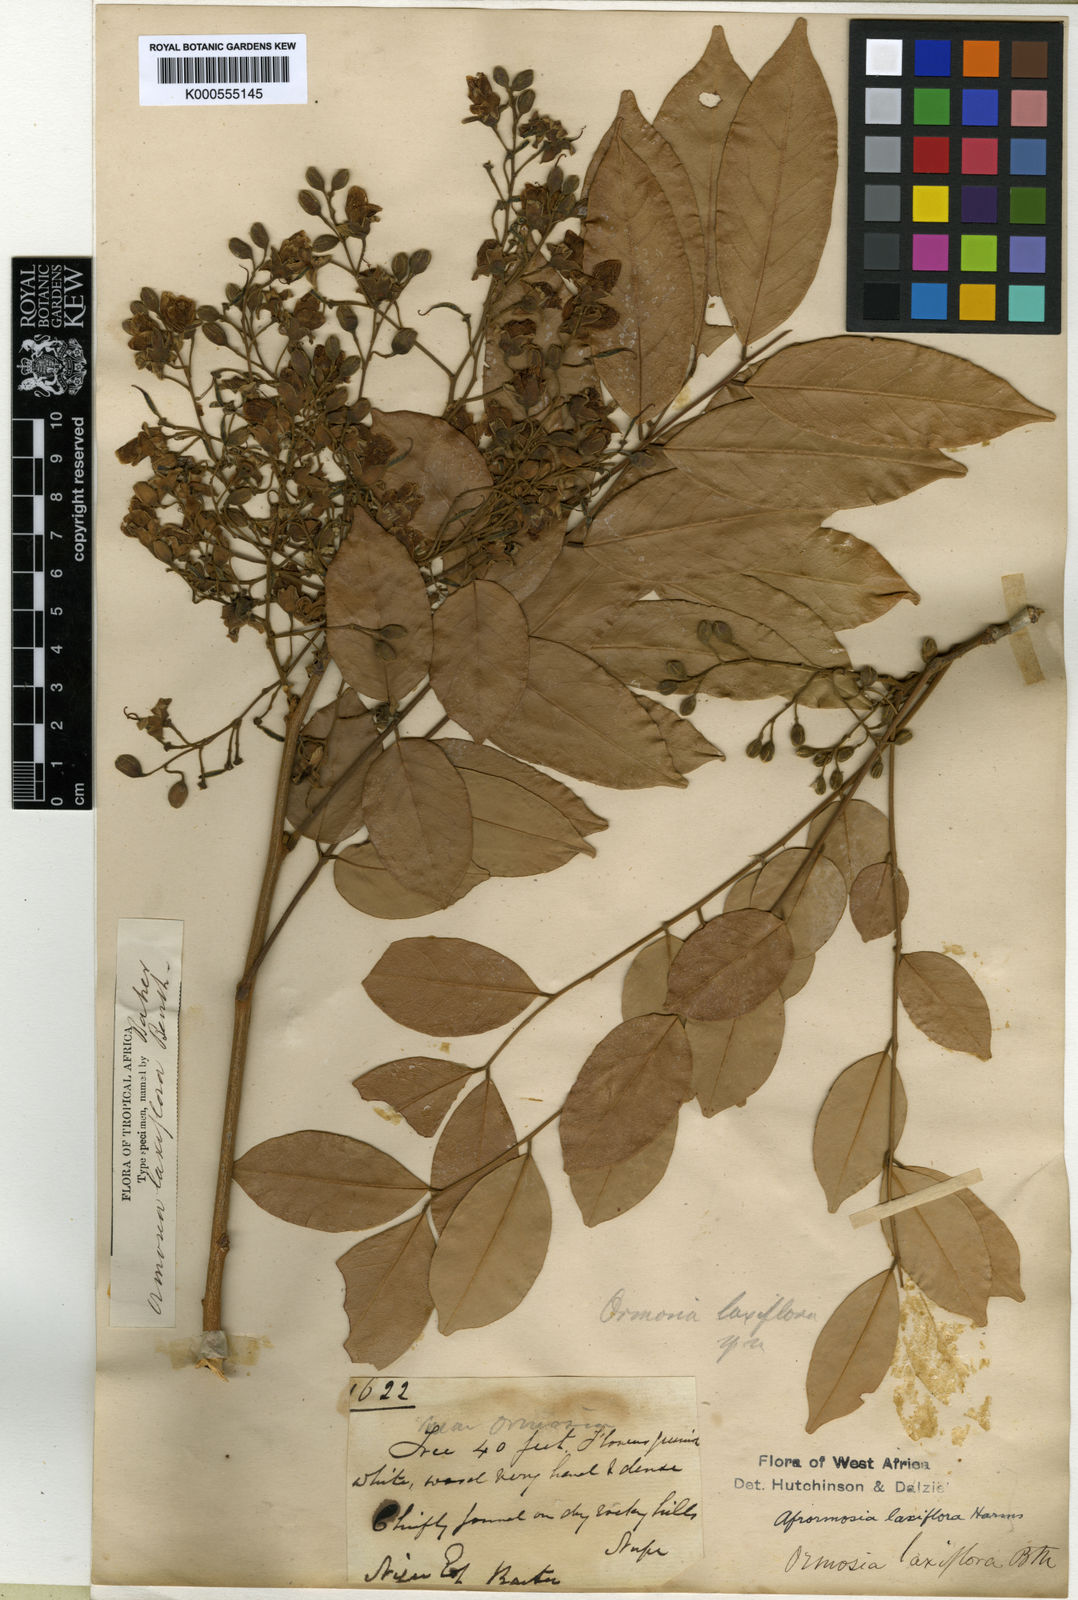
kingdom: Plantae
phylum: Tracheophyta
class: Magnoliopsida
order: Fabales
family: Fabaceae
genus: Pericopsis
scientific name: Pericopsis laxiflora
